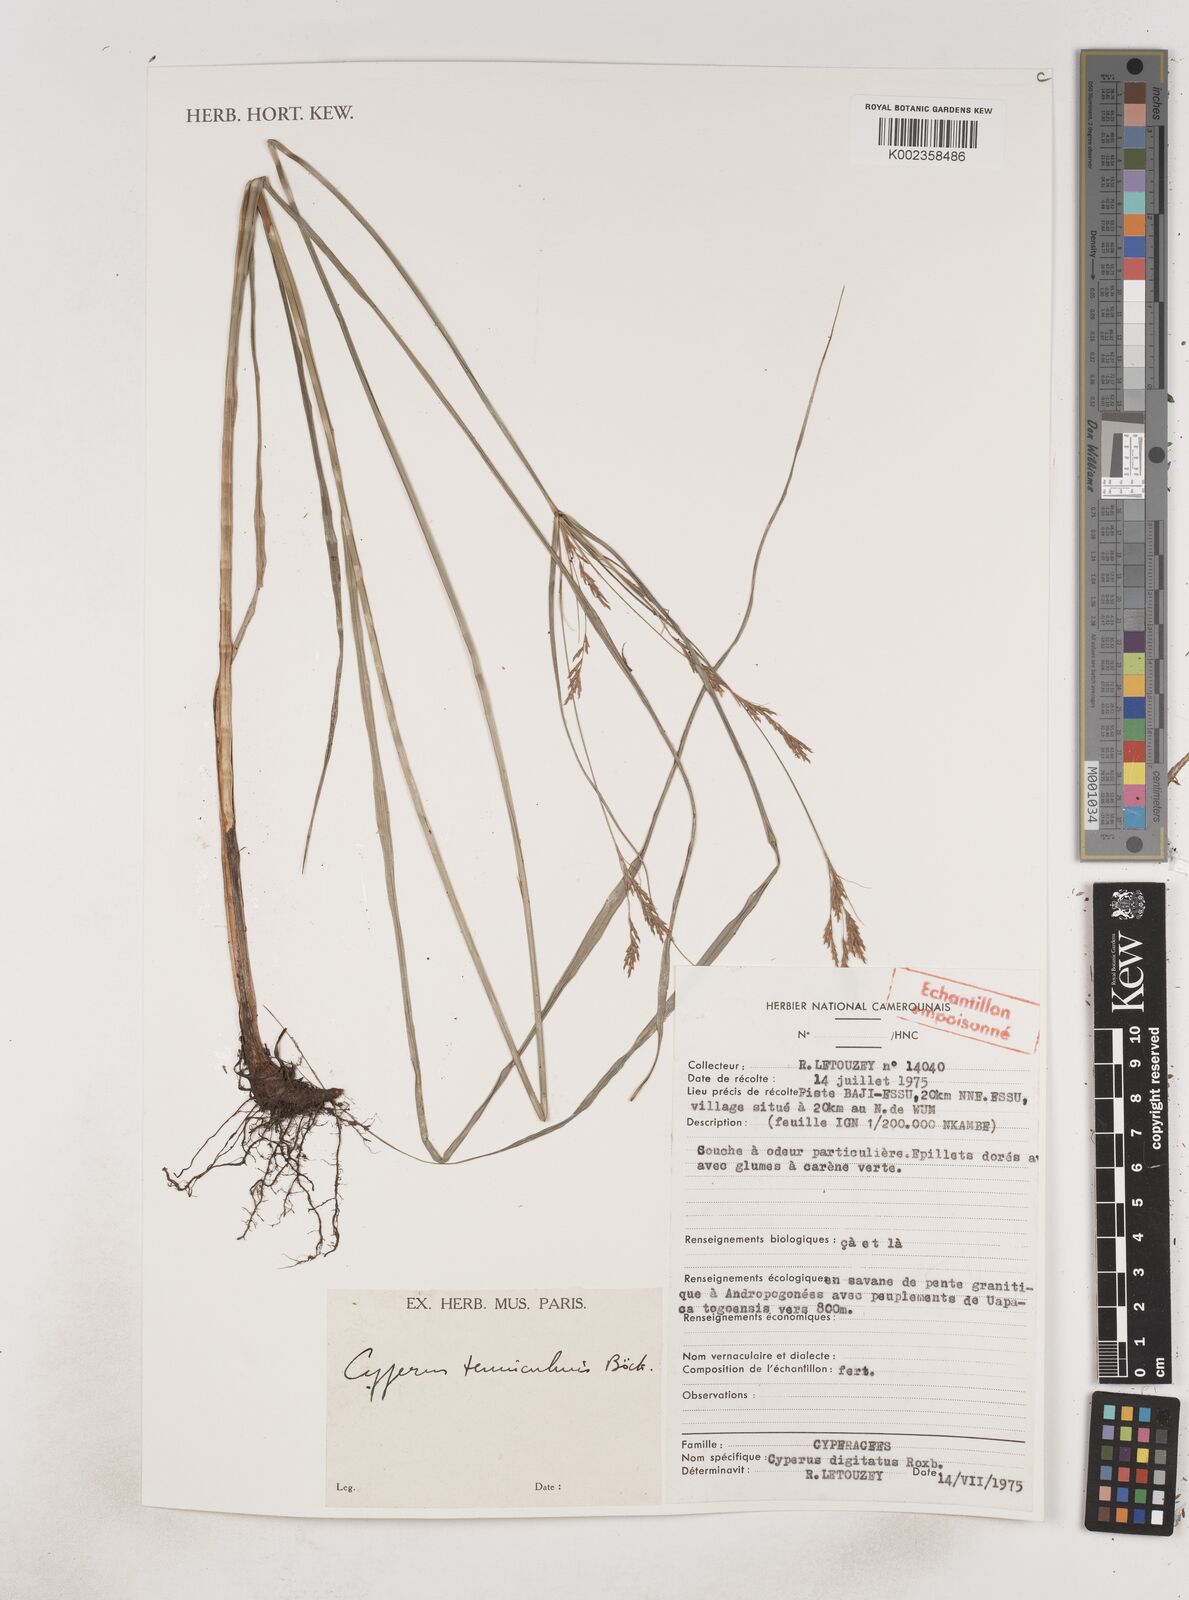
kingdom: Plantae
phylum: Tracheophyta
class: Liliopsida
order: Poales
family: Cyperaceae
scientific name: Cyperaceae
